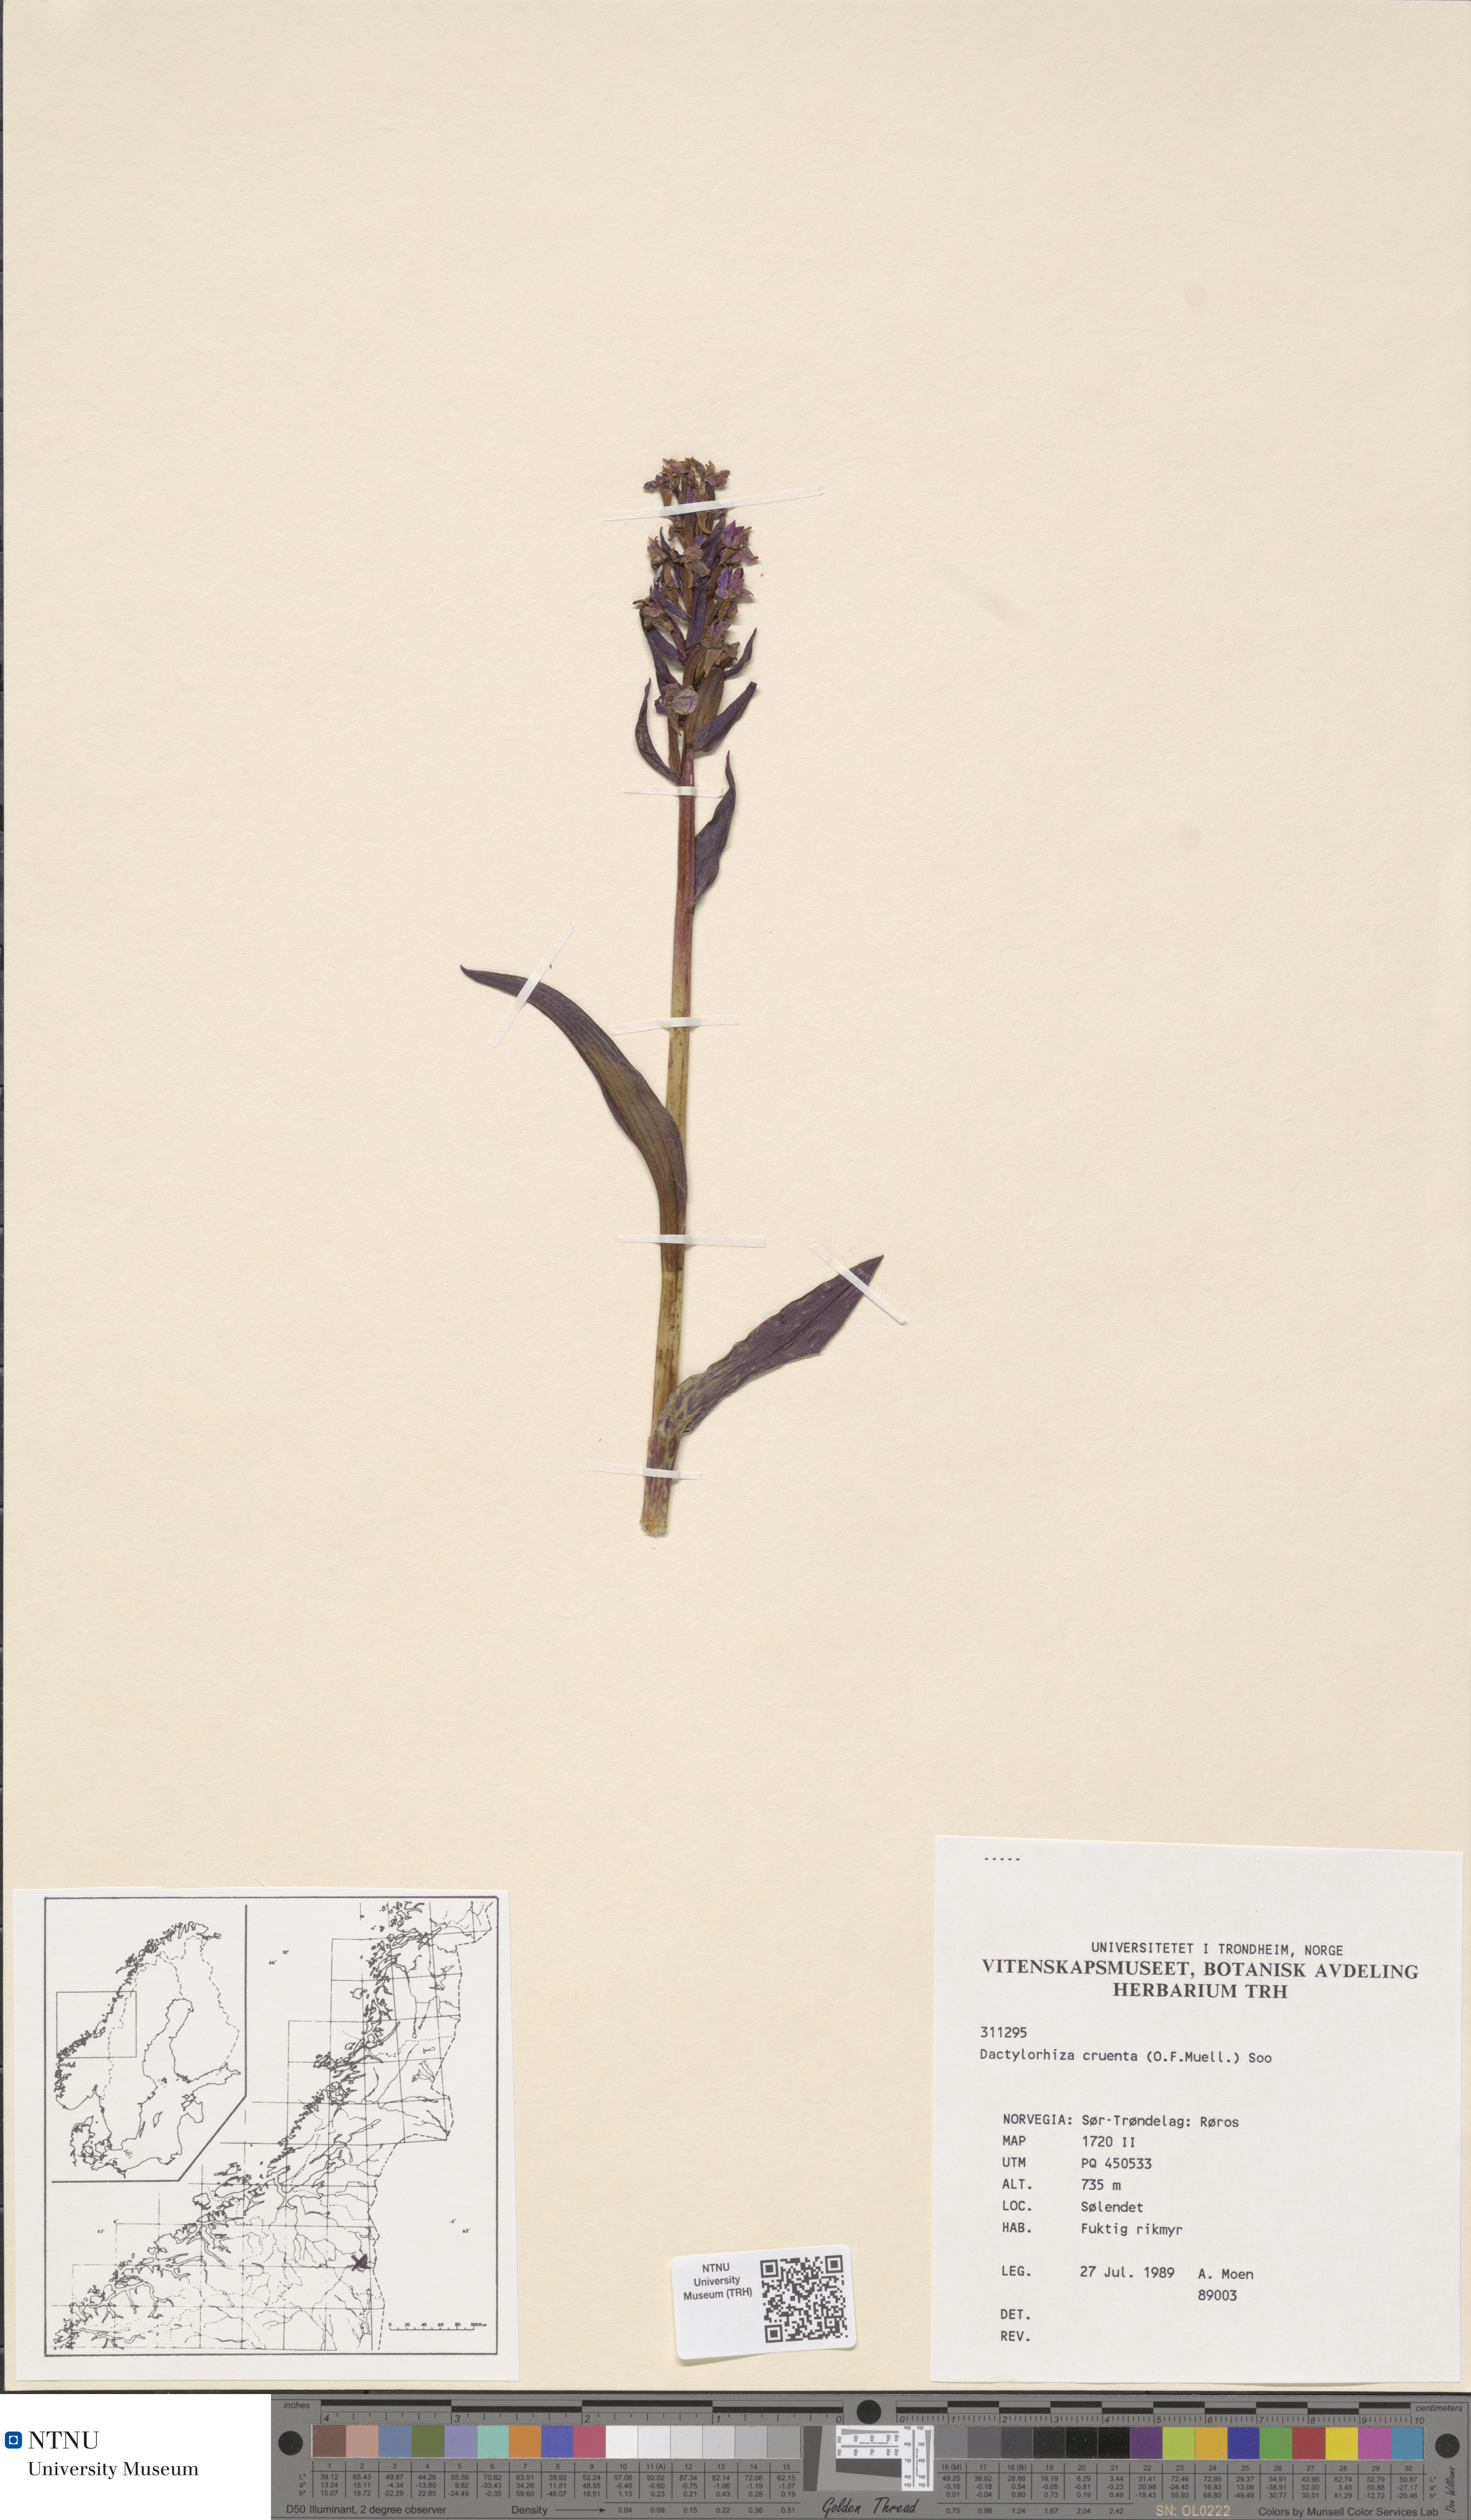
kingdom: Plantae
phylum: Tracheophyta
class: Liliopsida
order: Asparagales
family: Orchidaceae
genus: Dactylorhiza
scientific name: Dactylorhiza incarnata
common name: Early marsh-orchid
